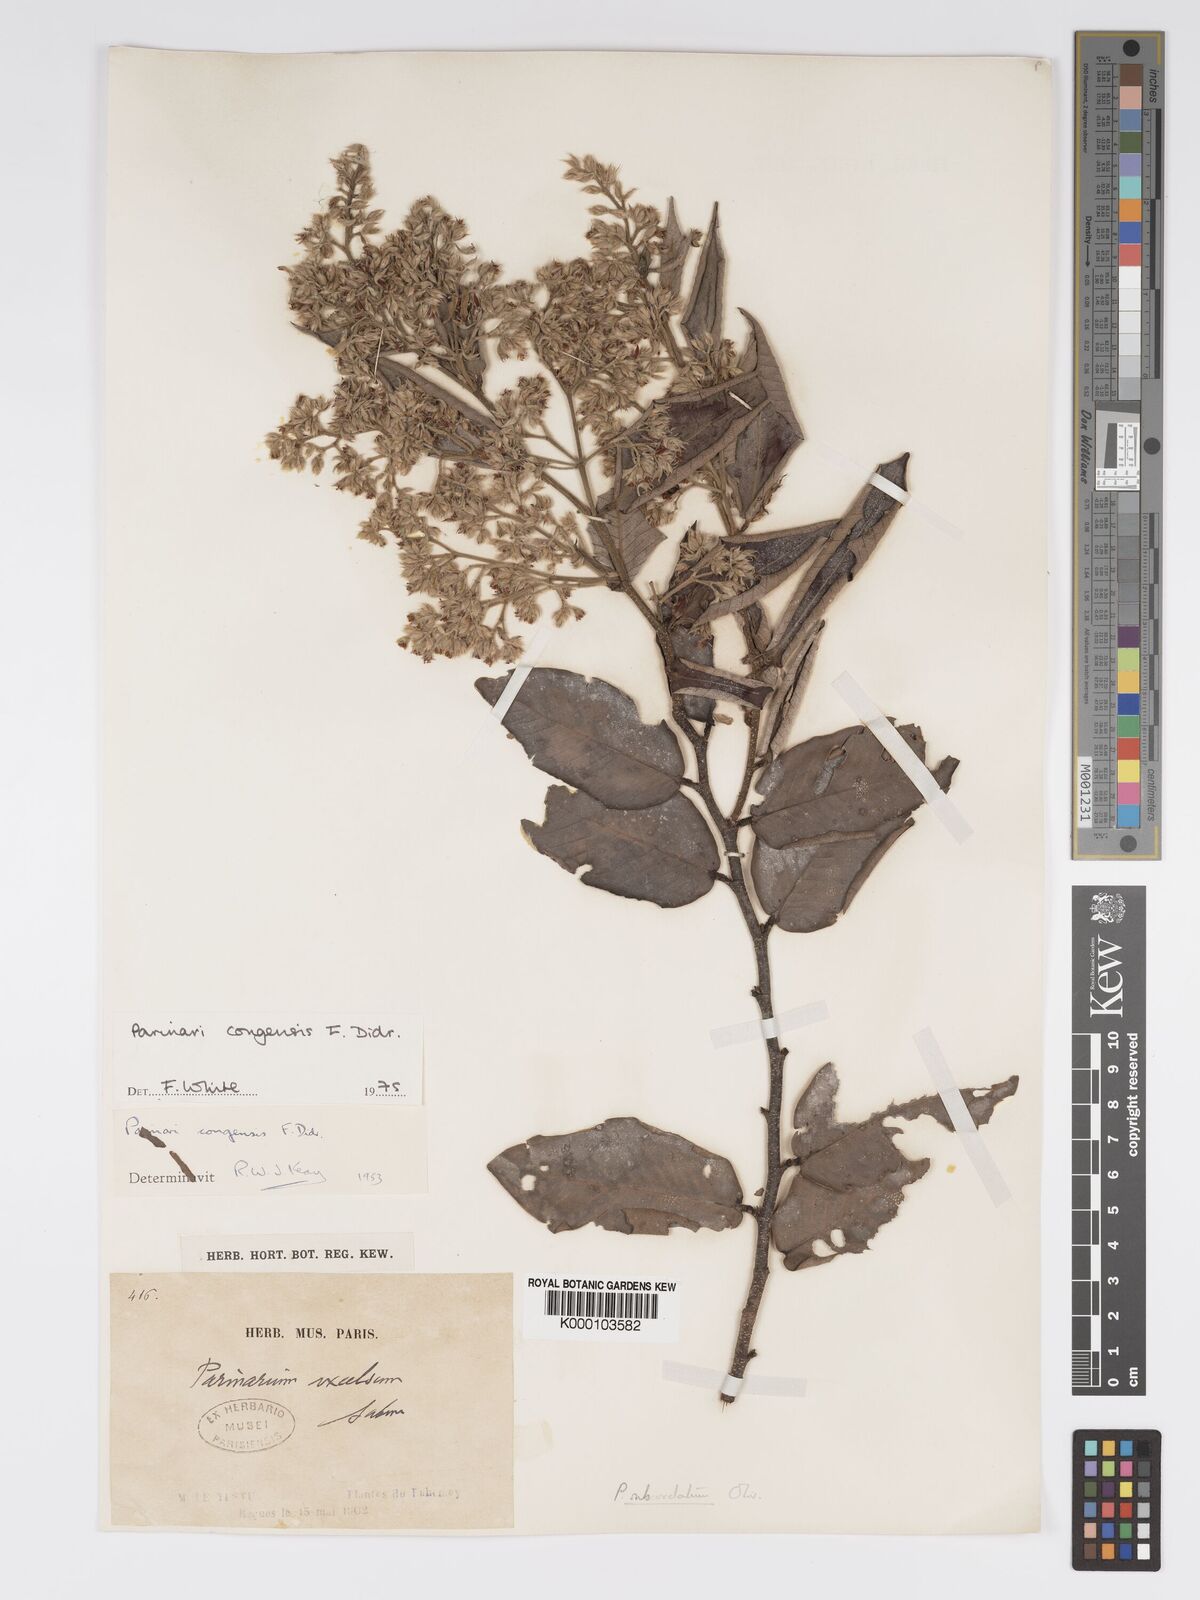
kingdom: Plantae
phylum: Tracheophyta
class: Magnoliopsida
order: Malpighiales
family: Chrysobalanaceae
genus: Parinari
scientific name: Parinari congensis
